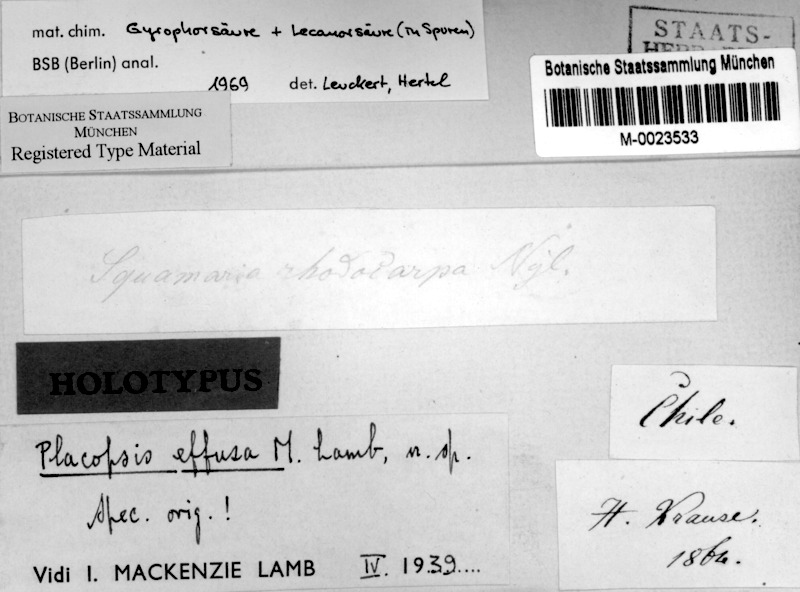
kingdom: Fungi
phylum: Ascomycota
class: Lecanoromycetes
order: Baeomycetales
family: Trapeliaceae
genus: Placopsis
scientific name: Placopsis effusa
